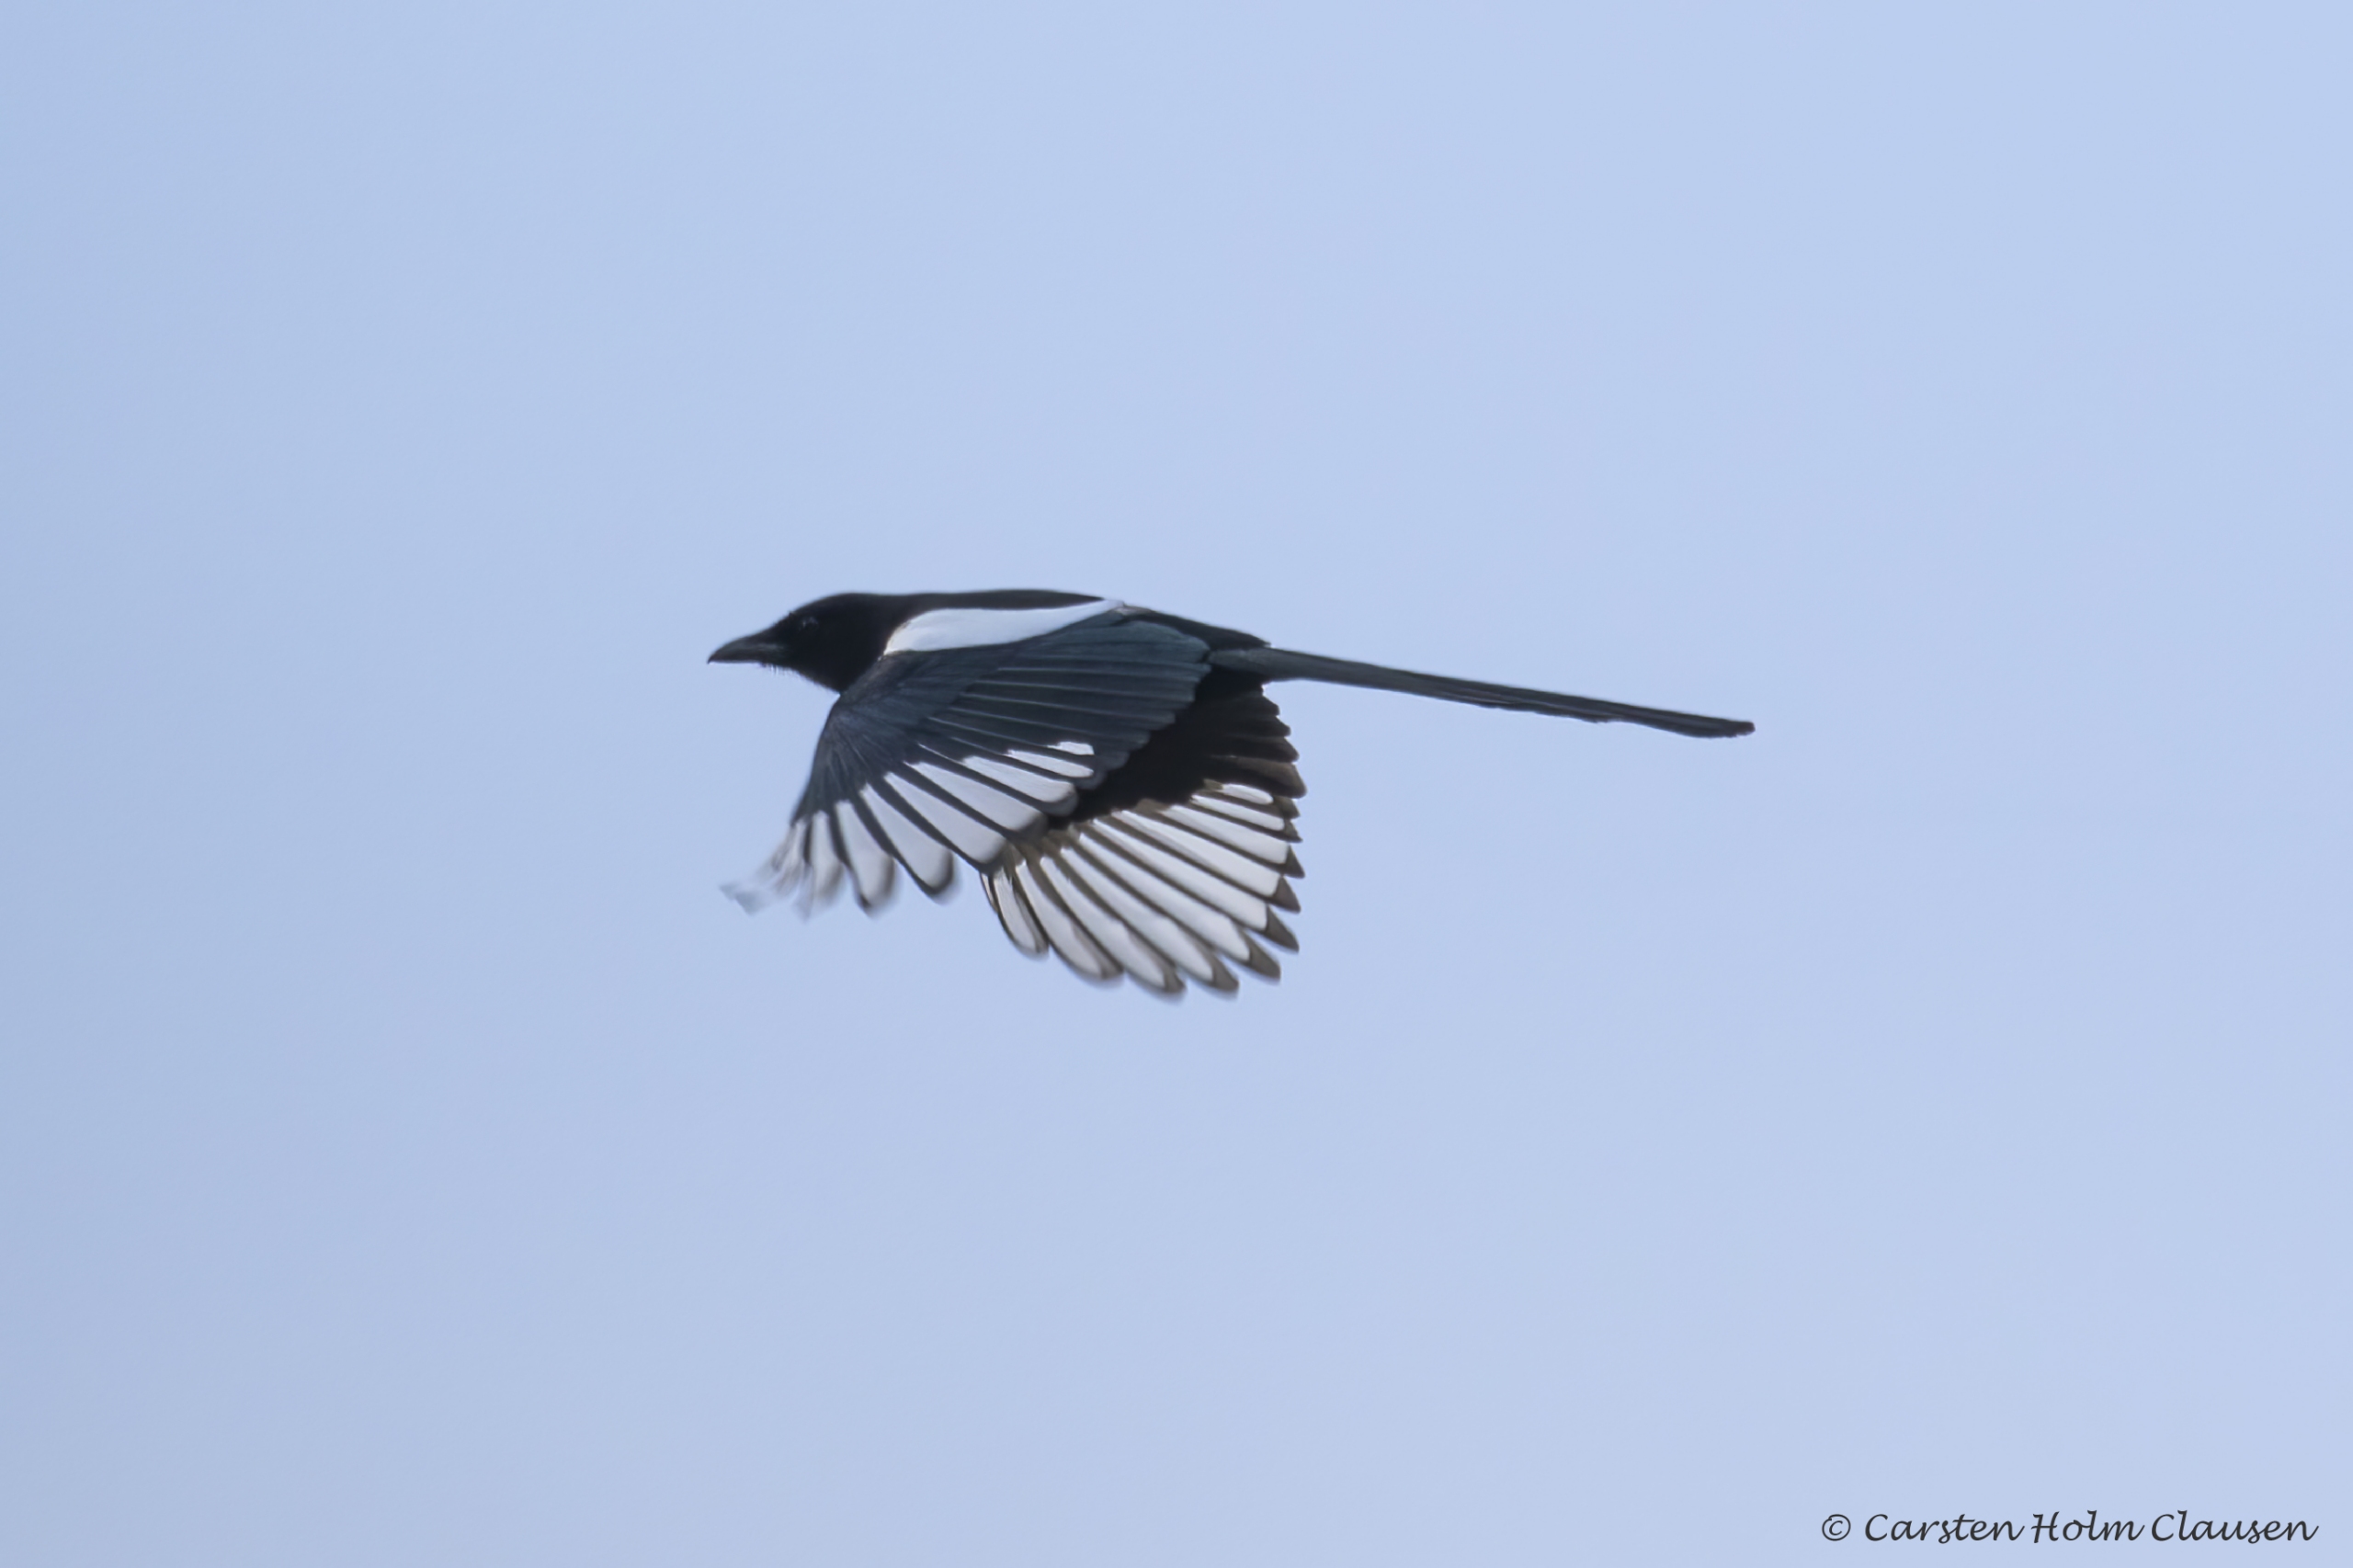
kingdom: Animalia
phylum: Chordata
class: Aves
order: Passeriformes
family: Corvidae
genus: Pica
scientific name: Pica pica
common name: Husskade
